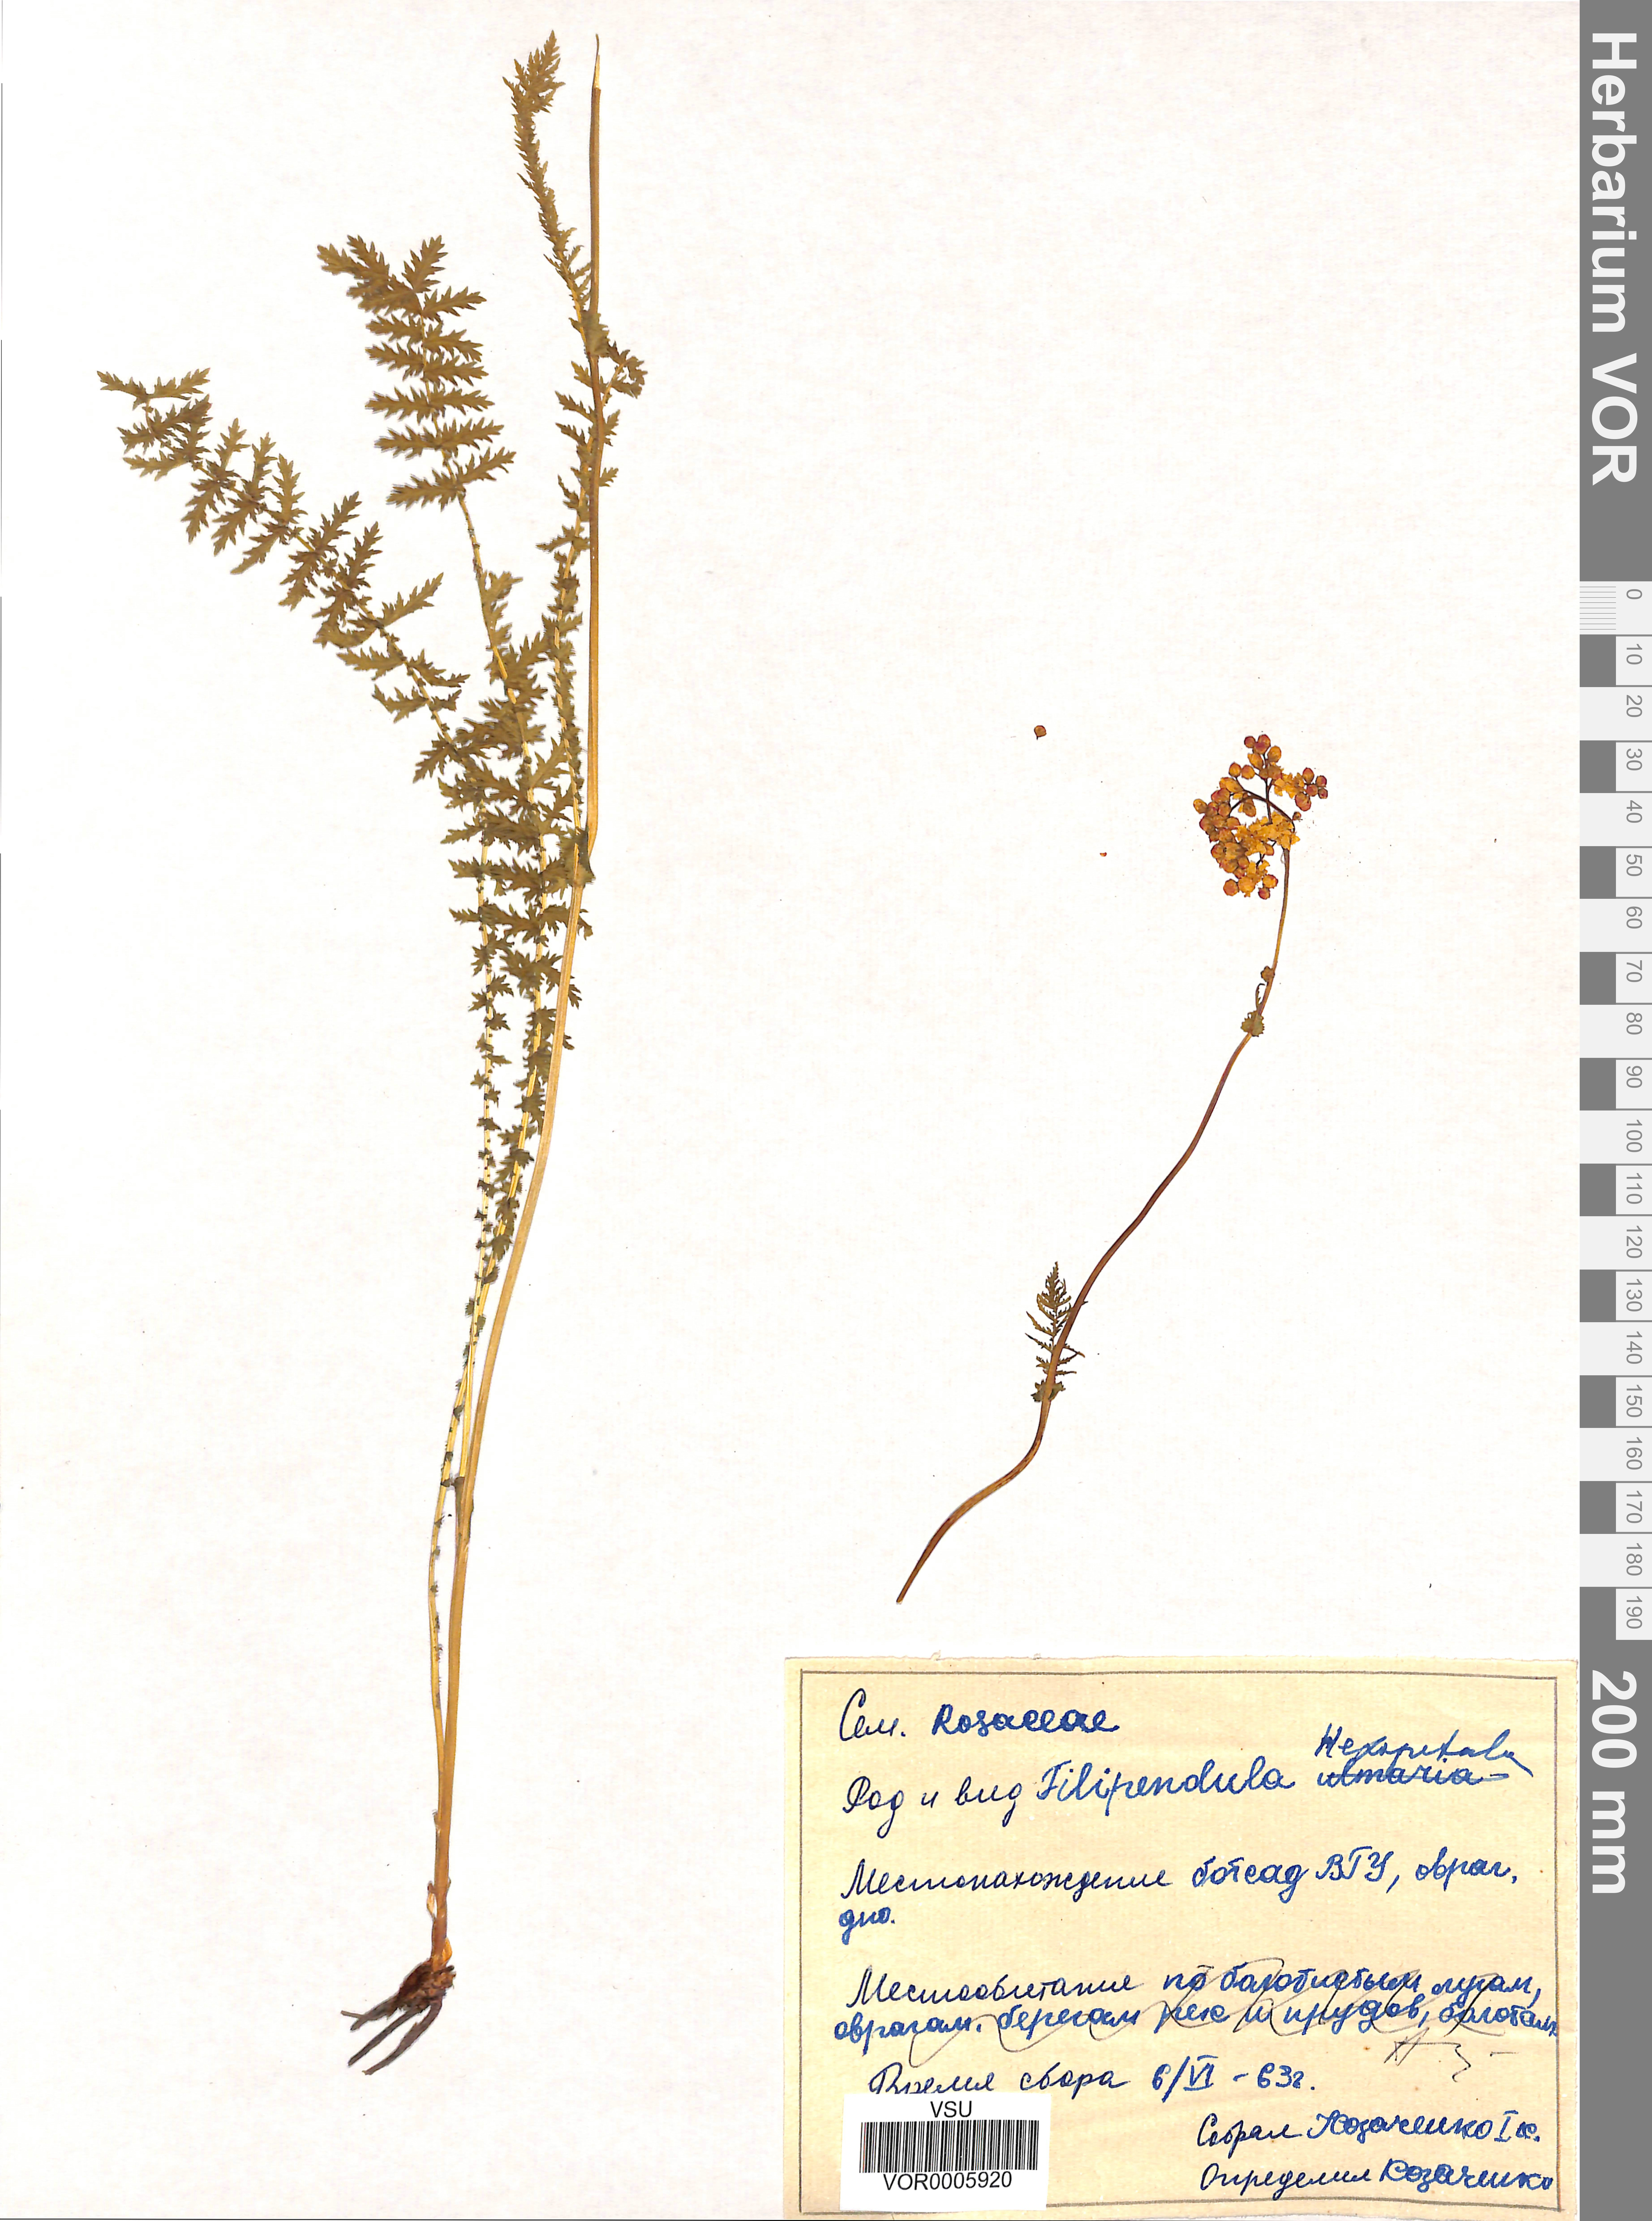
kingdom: Plantae
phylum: Tracheophyta
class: Magnoliopsida
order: Rosales
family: Rosaceae
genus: Filipendula
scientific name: Filipendula vulgaris
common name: Dropwort
